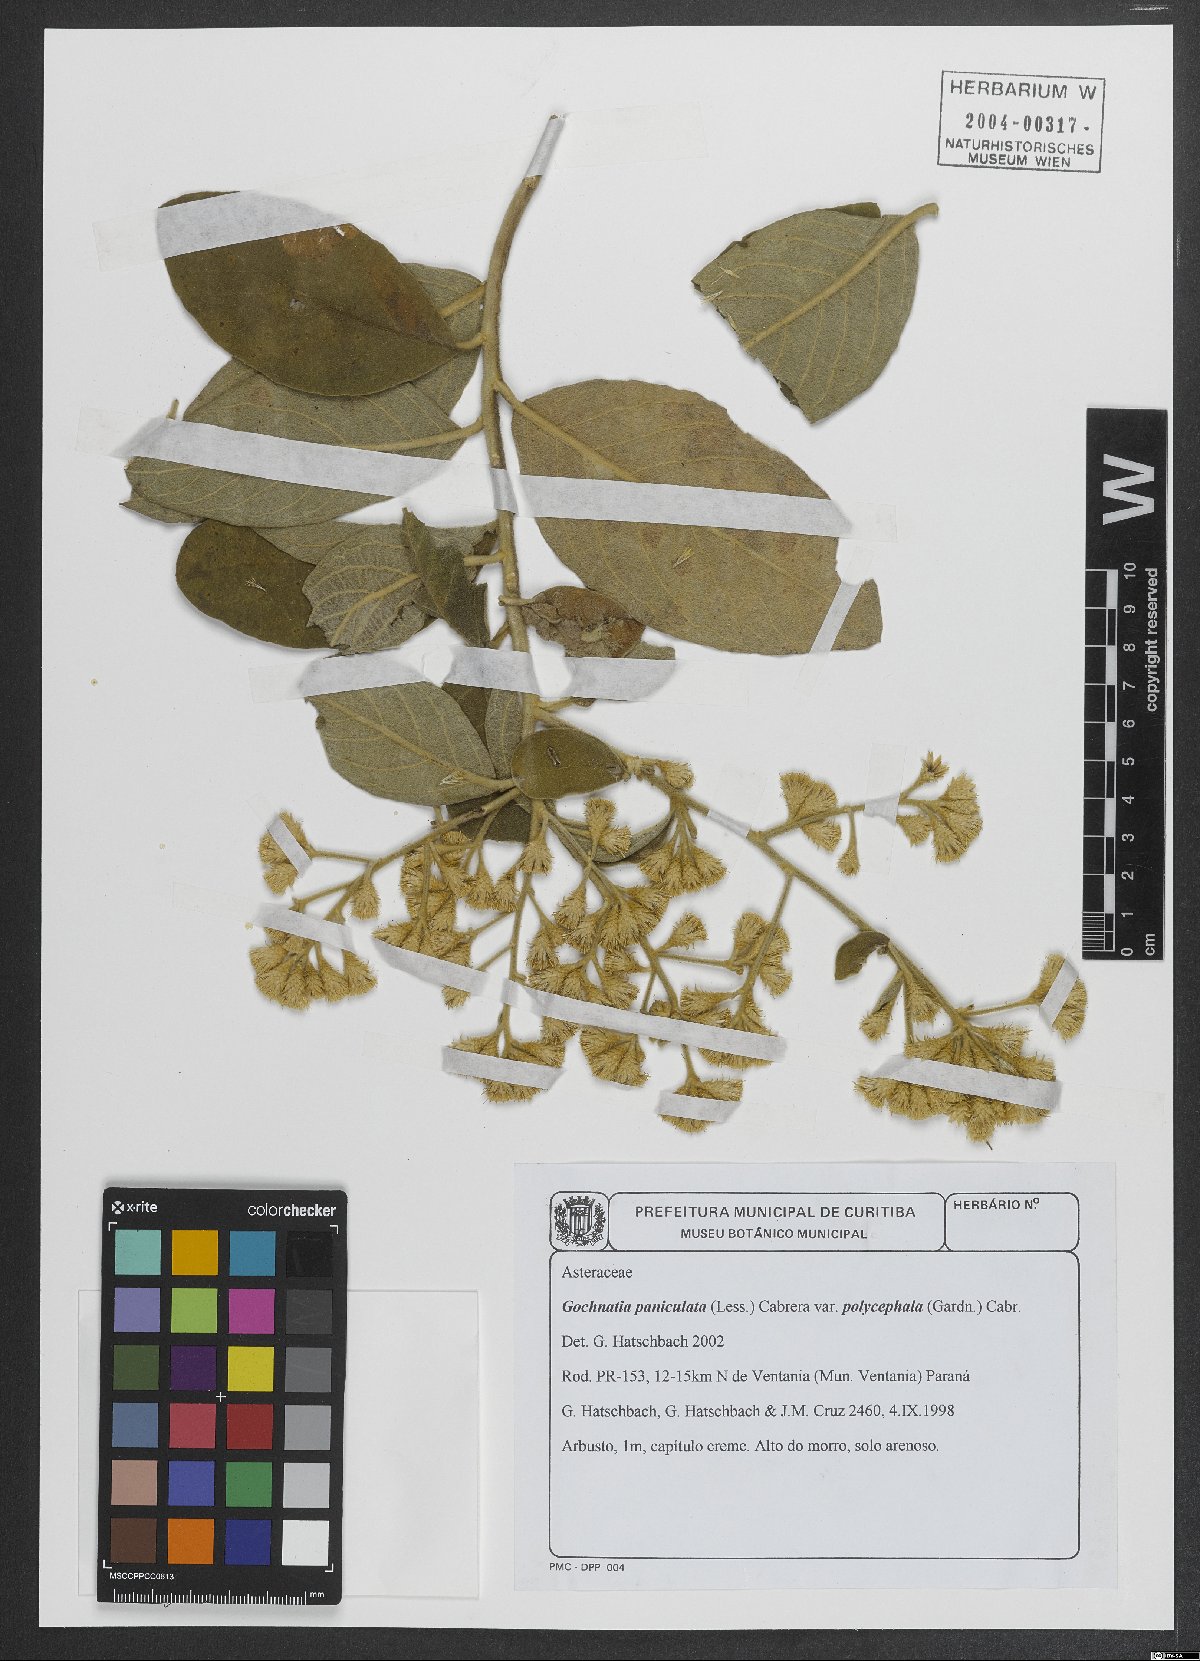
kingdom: Plantae
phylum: Tracheophyta
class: Magnoliopsida
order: Asterales
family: Asteraceae
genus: Moquiniastrum
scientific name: Moquiniastrum paniculatum
